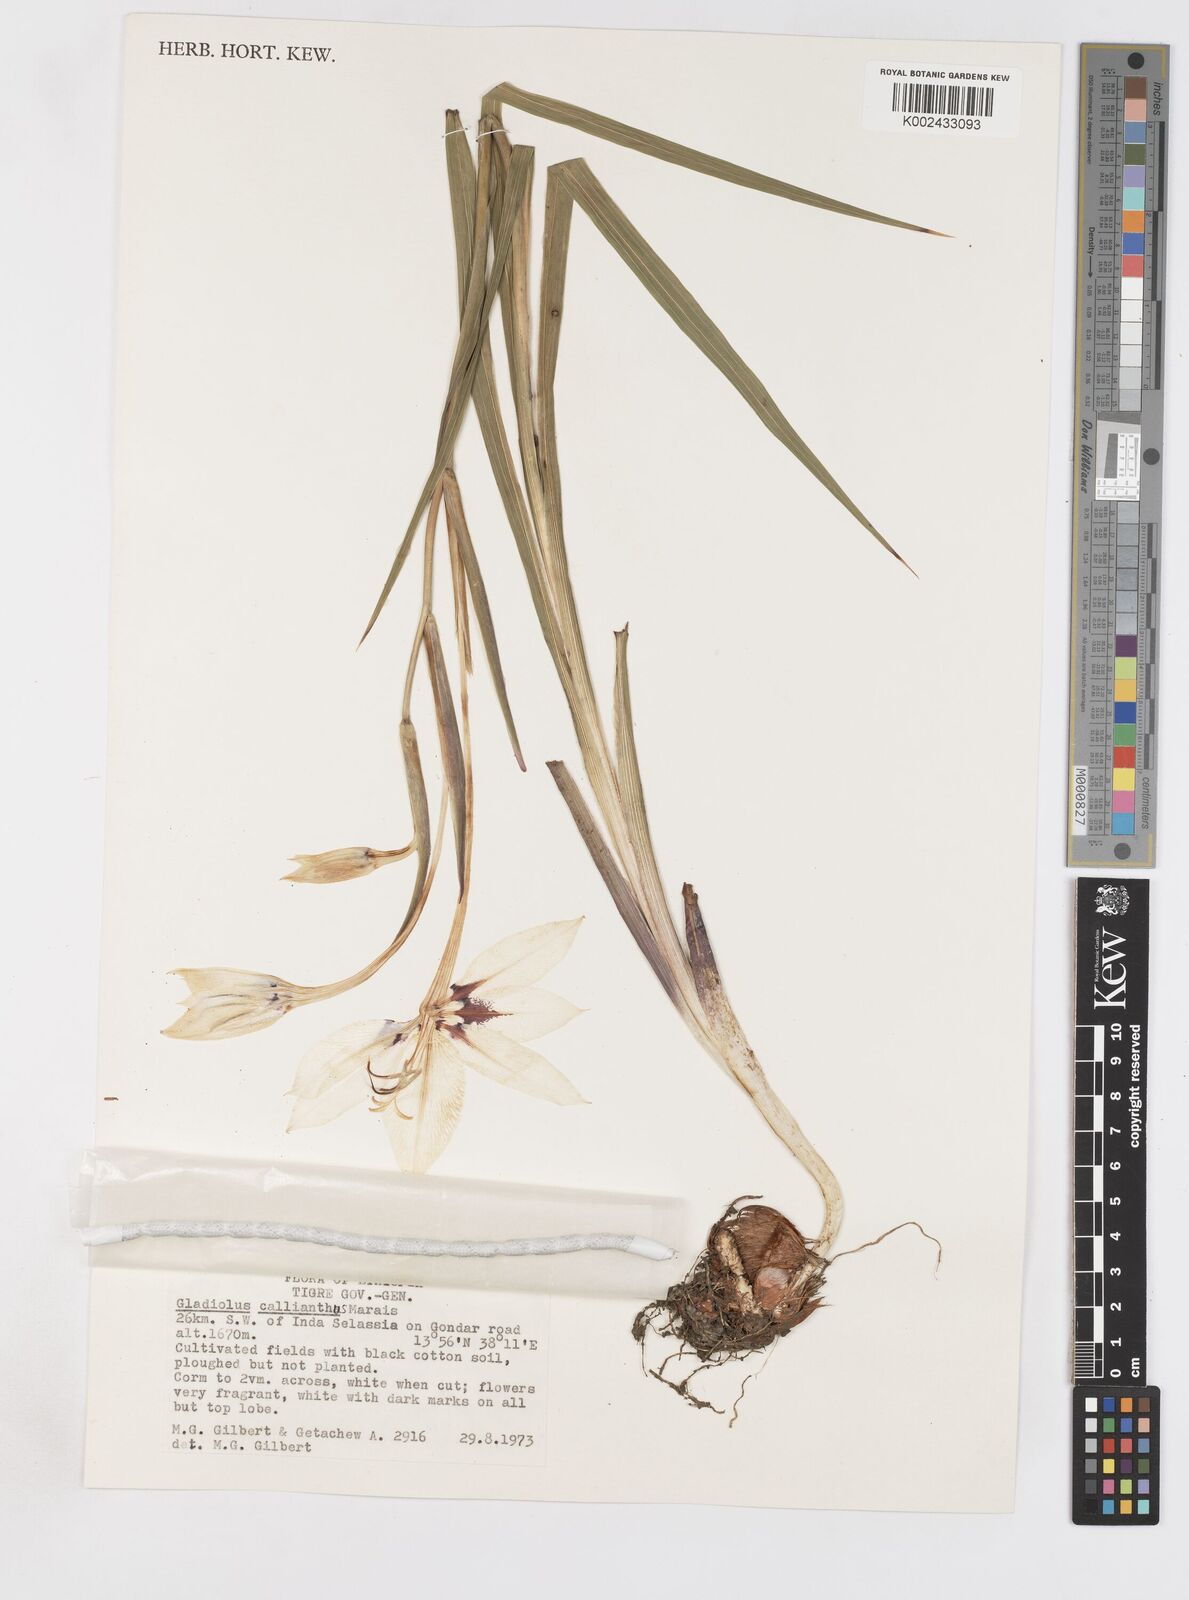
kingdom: Plantae
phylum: Tracheophyta
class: Liliopsida
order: Asparagales
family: Iridaceae
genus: Gladiolus
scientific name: Gladiolus murielae
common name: Acidanthera
